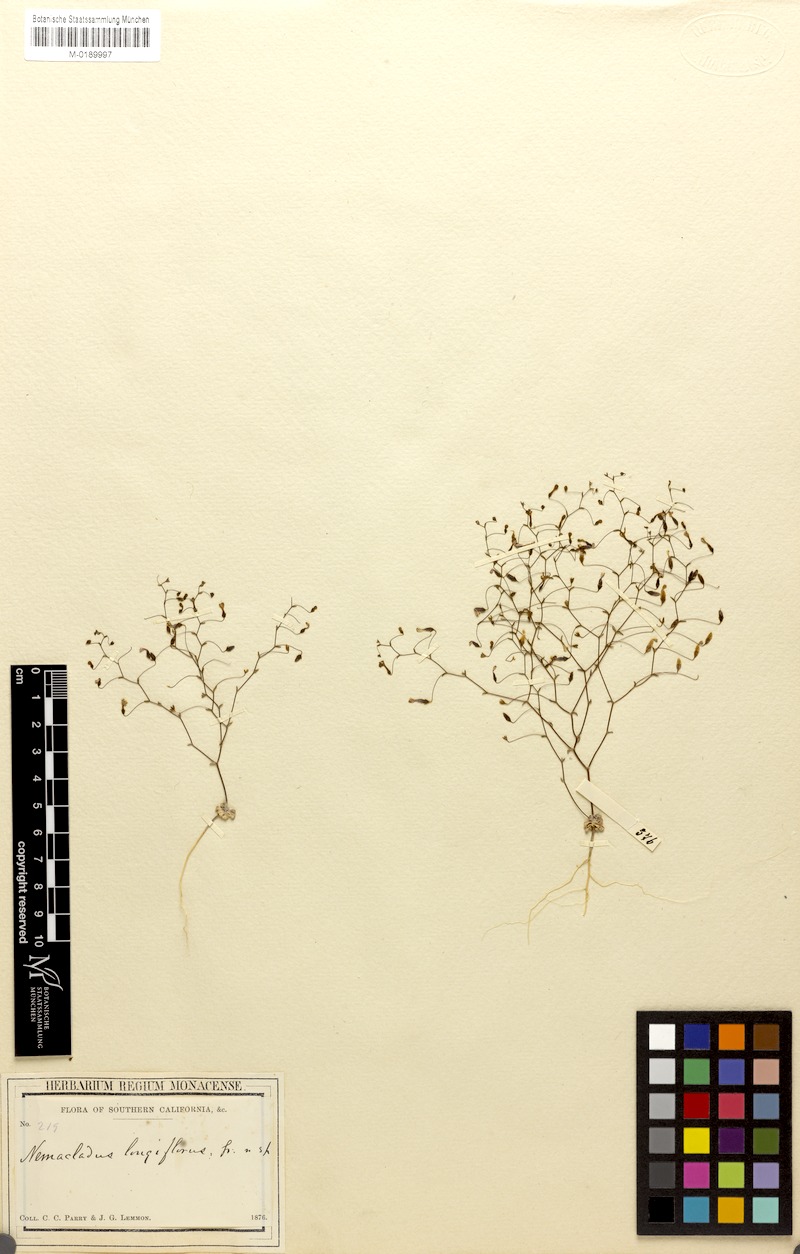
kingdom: Plantae
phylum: Tracheophyta
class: Magnoliopsida
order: Asterales
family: Campanulaceae
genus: Nemacladus
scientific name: Nemacladus longiflorus
